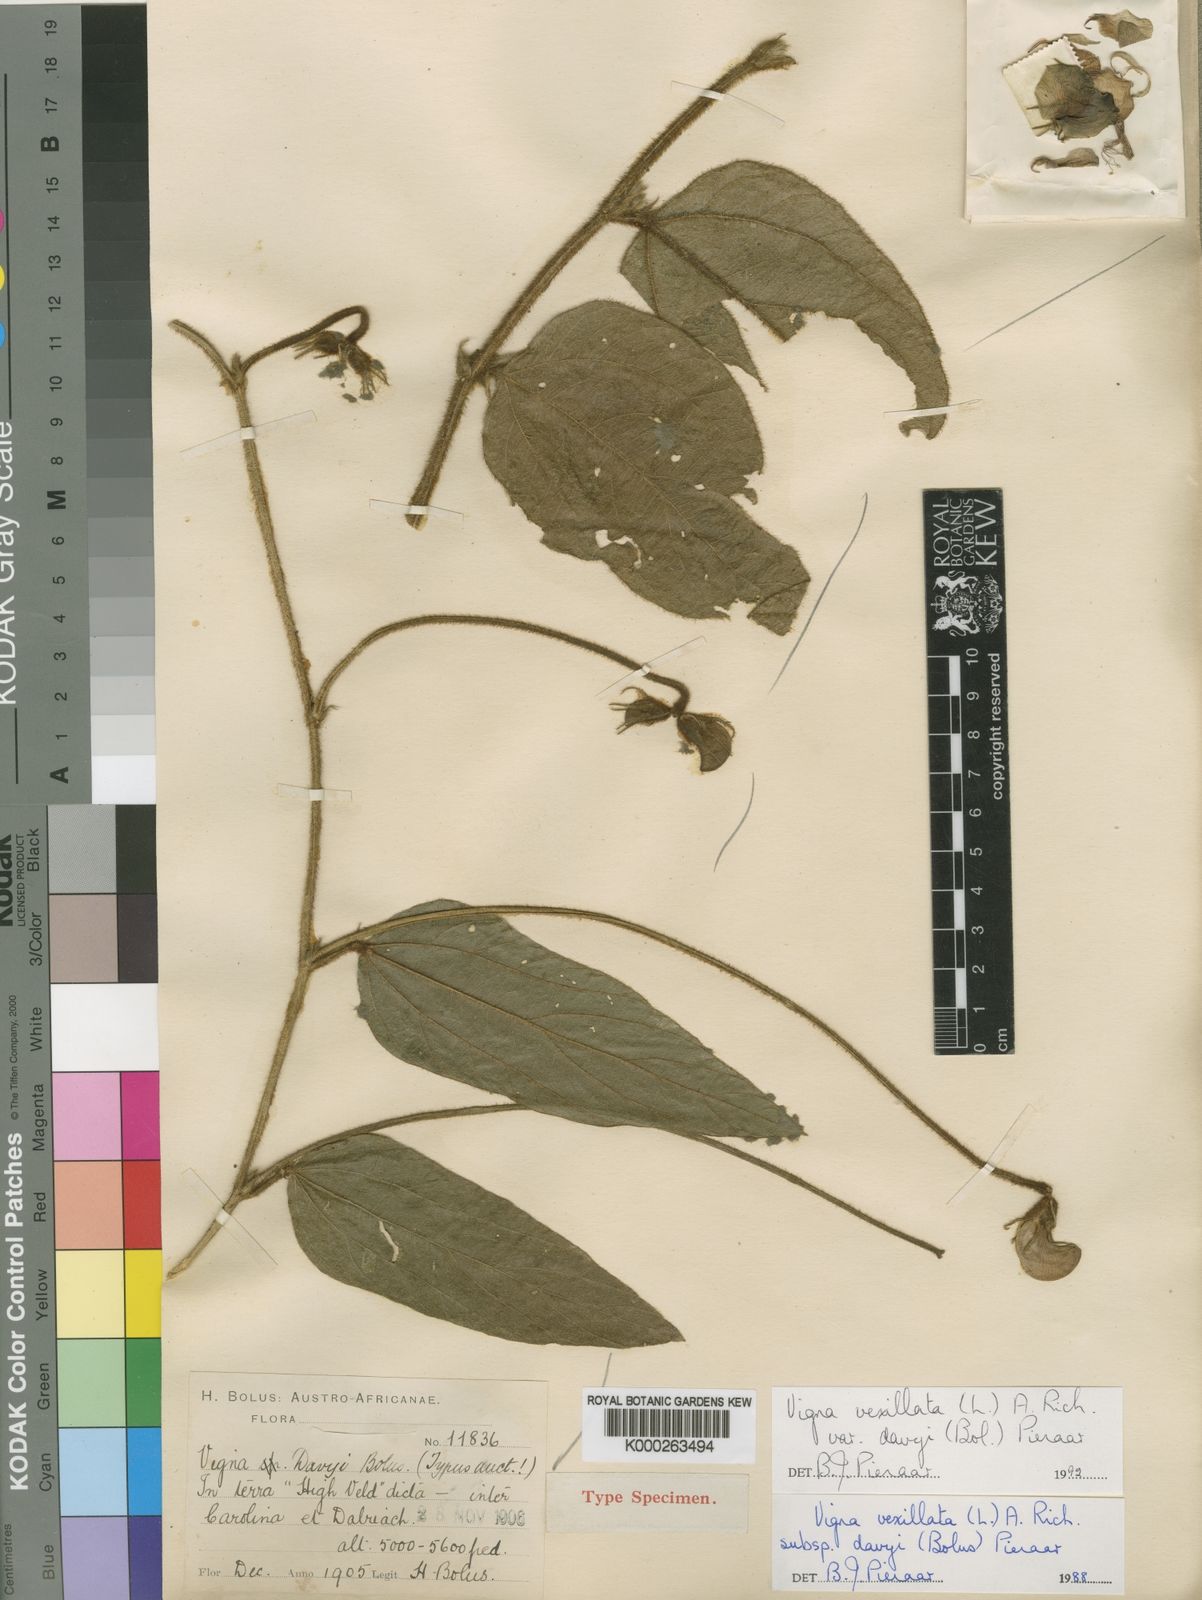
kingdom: Plantae
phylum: Tracheophyta
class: Magnoliopsida
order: Fabales
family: Fabaceae
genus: Vigna
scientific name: Vigna vexillata
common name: Zombi pea
